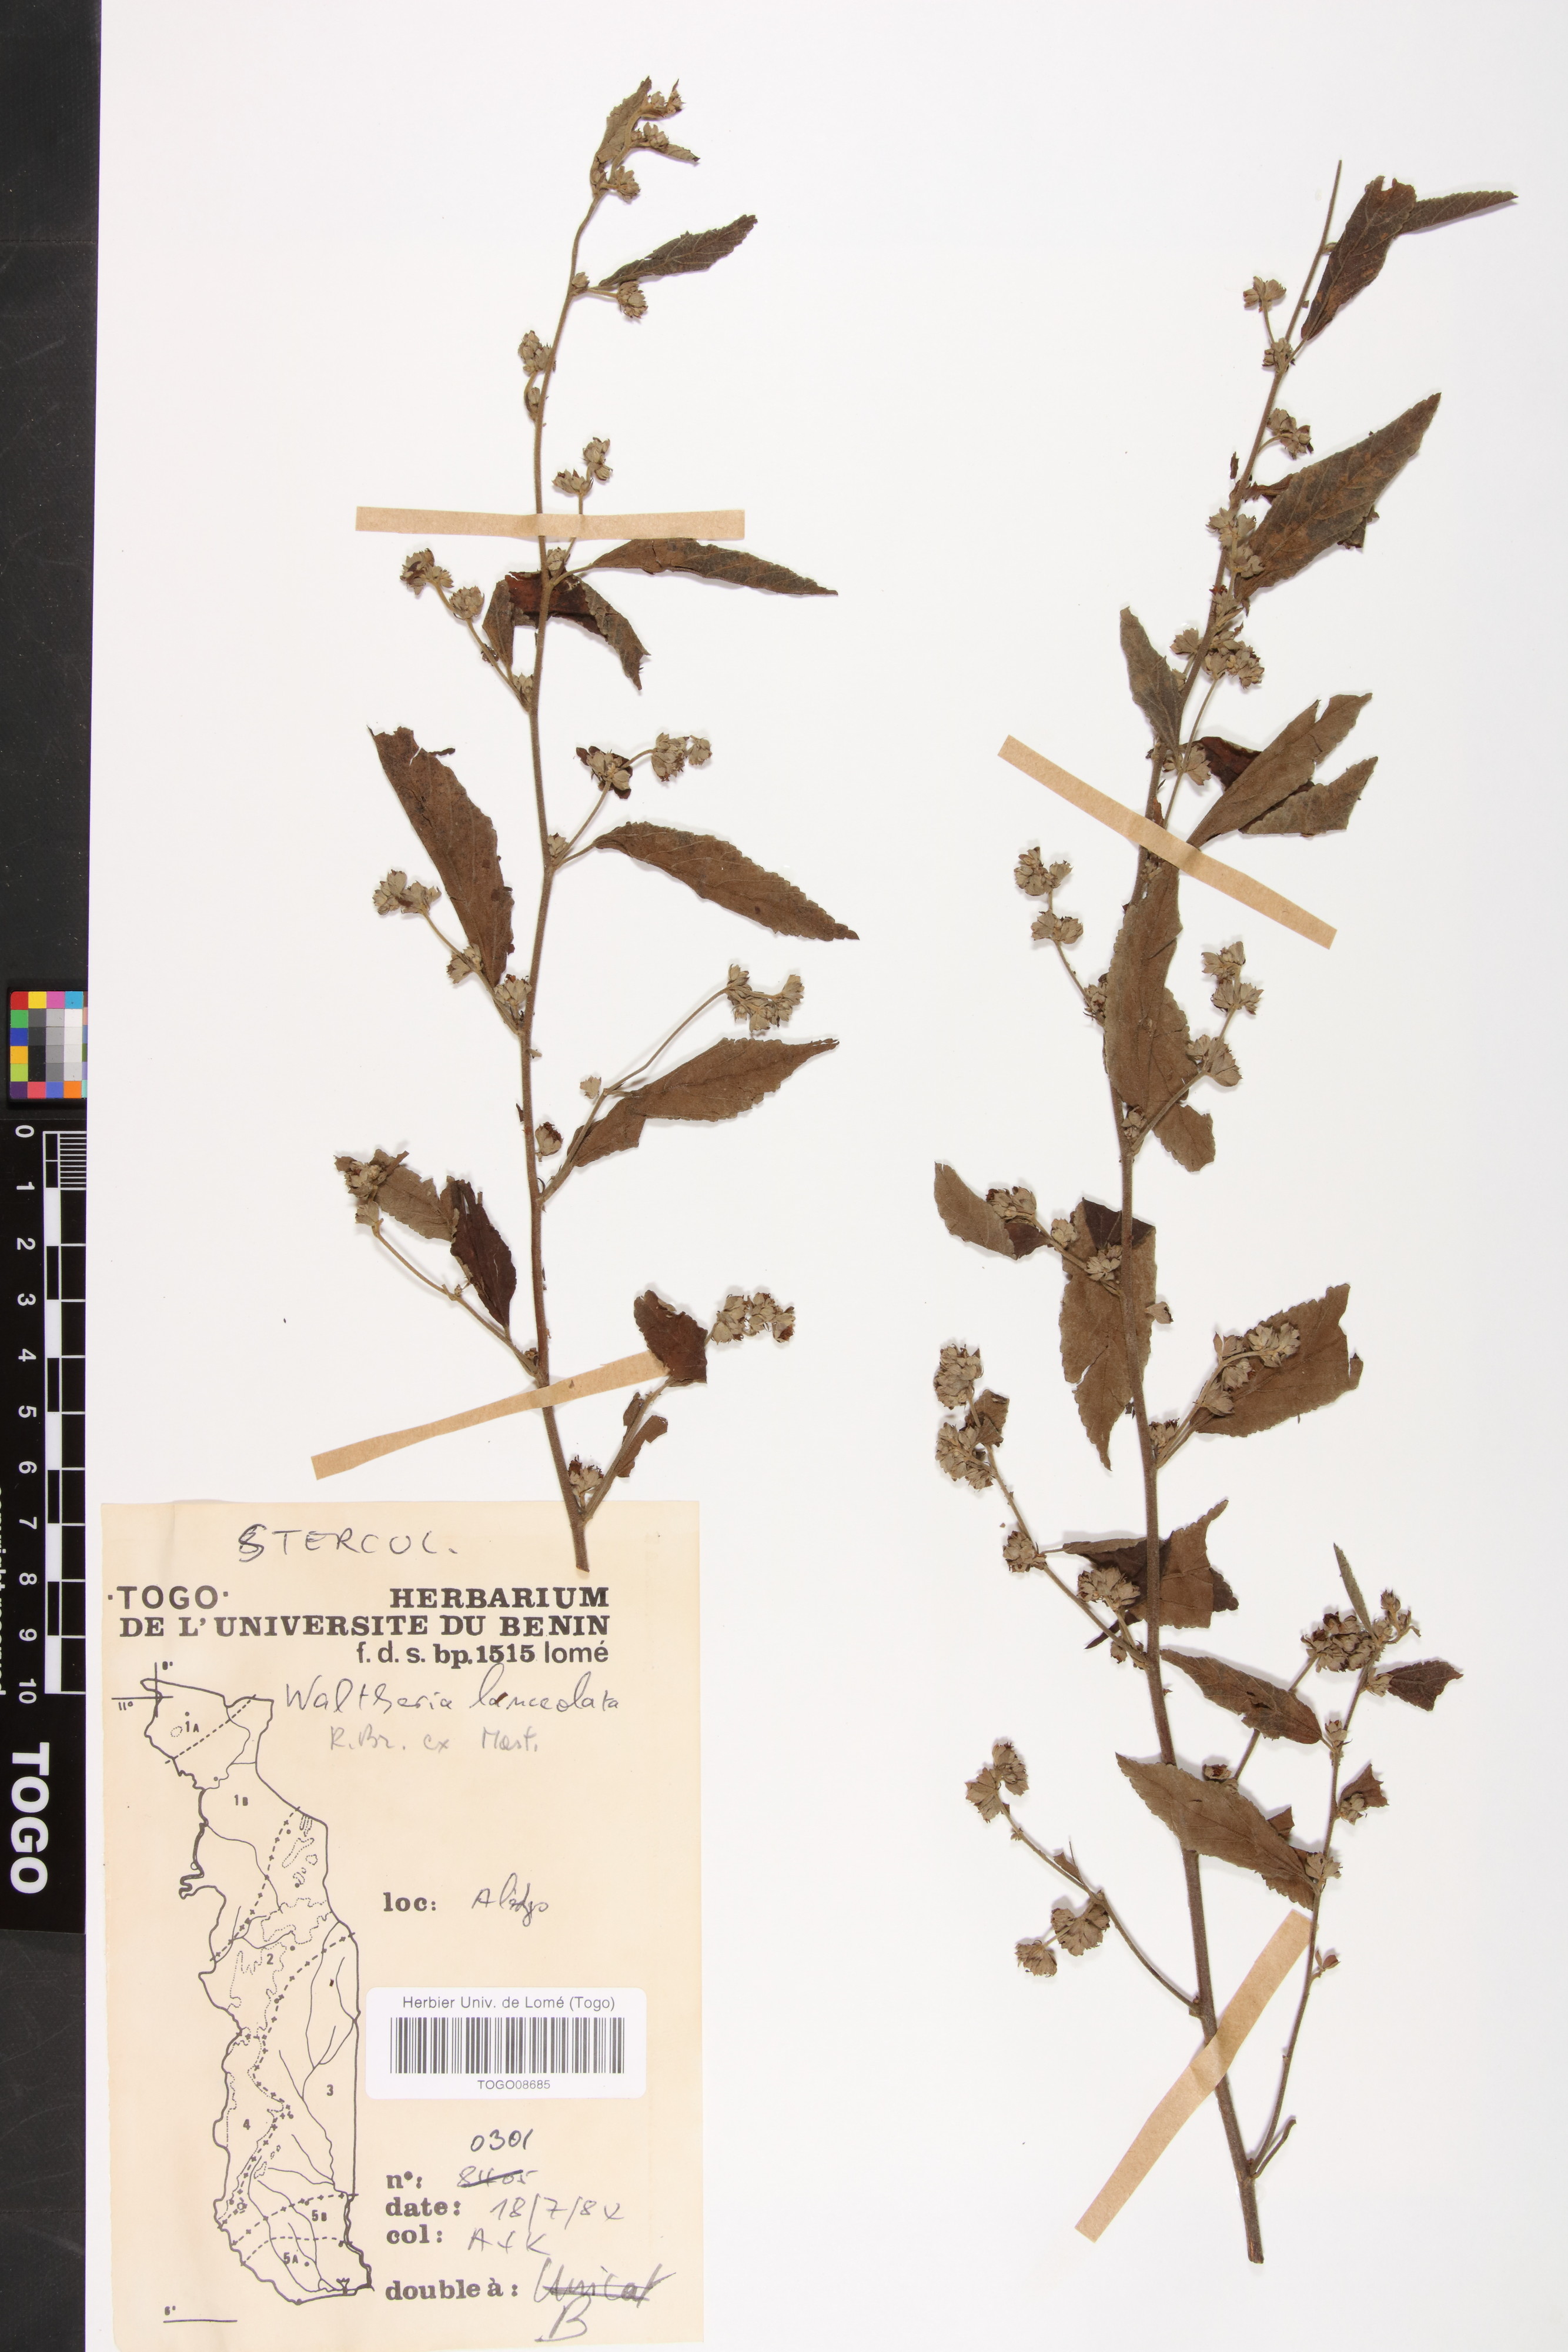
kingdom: Plantae
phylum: Tracheophyta
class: Magnoliopsida
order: Malvales
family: Malvaceae
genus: Waltheria
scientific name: Waltheria lanceolata
